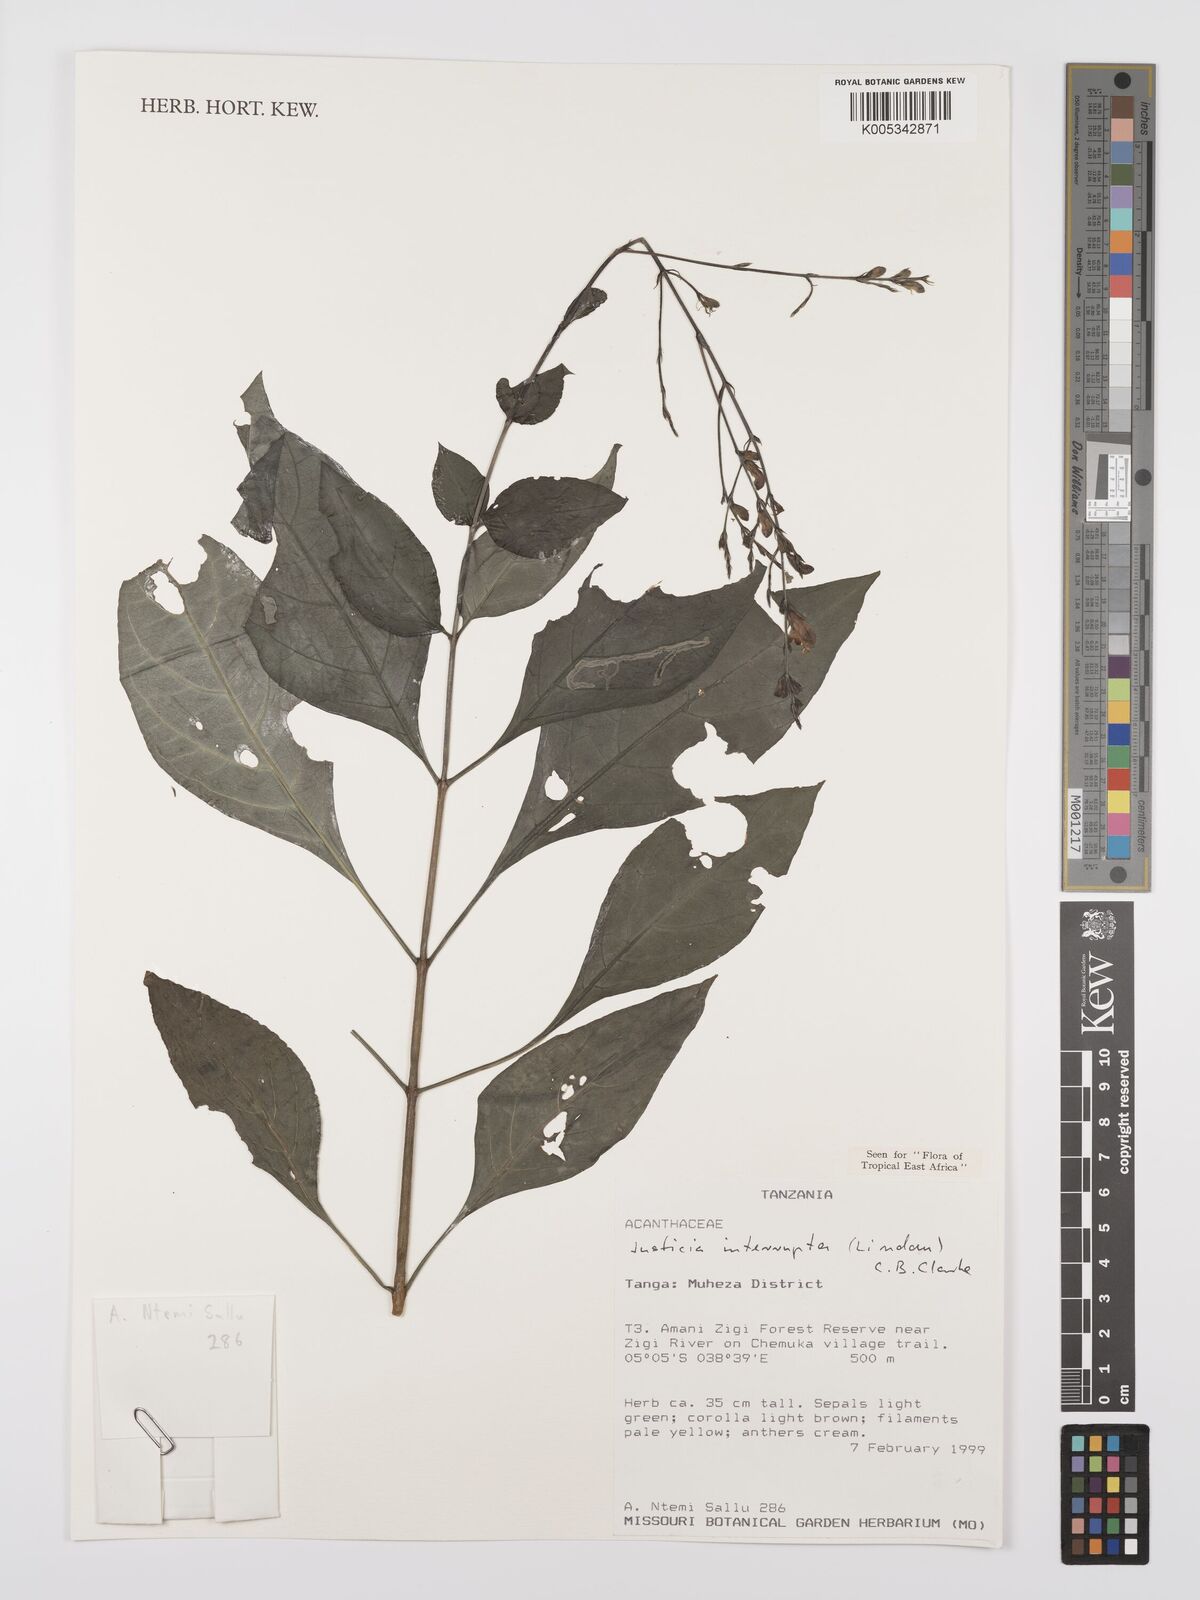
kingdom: Plantae
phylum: Tracheophyta
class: Magnoliopsida
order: Lamiales
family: Acanthaceae
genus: Justicia
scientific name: Justicia plectranthoides
